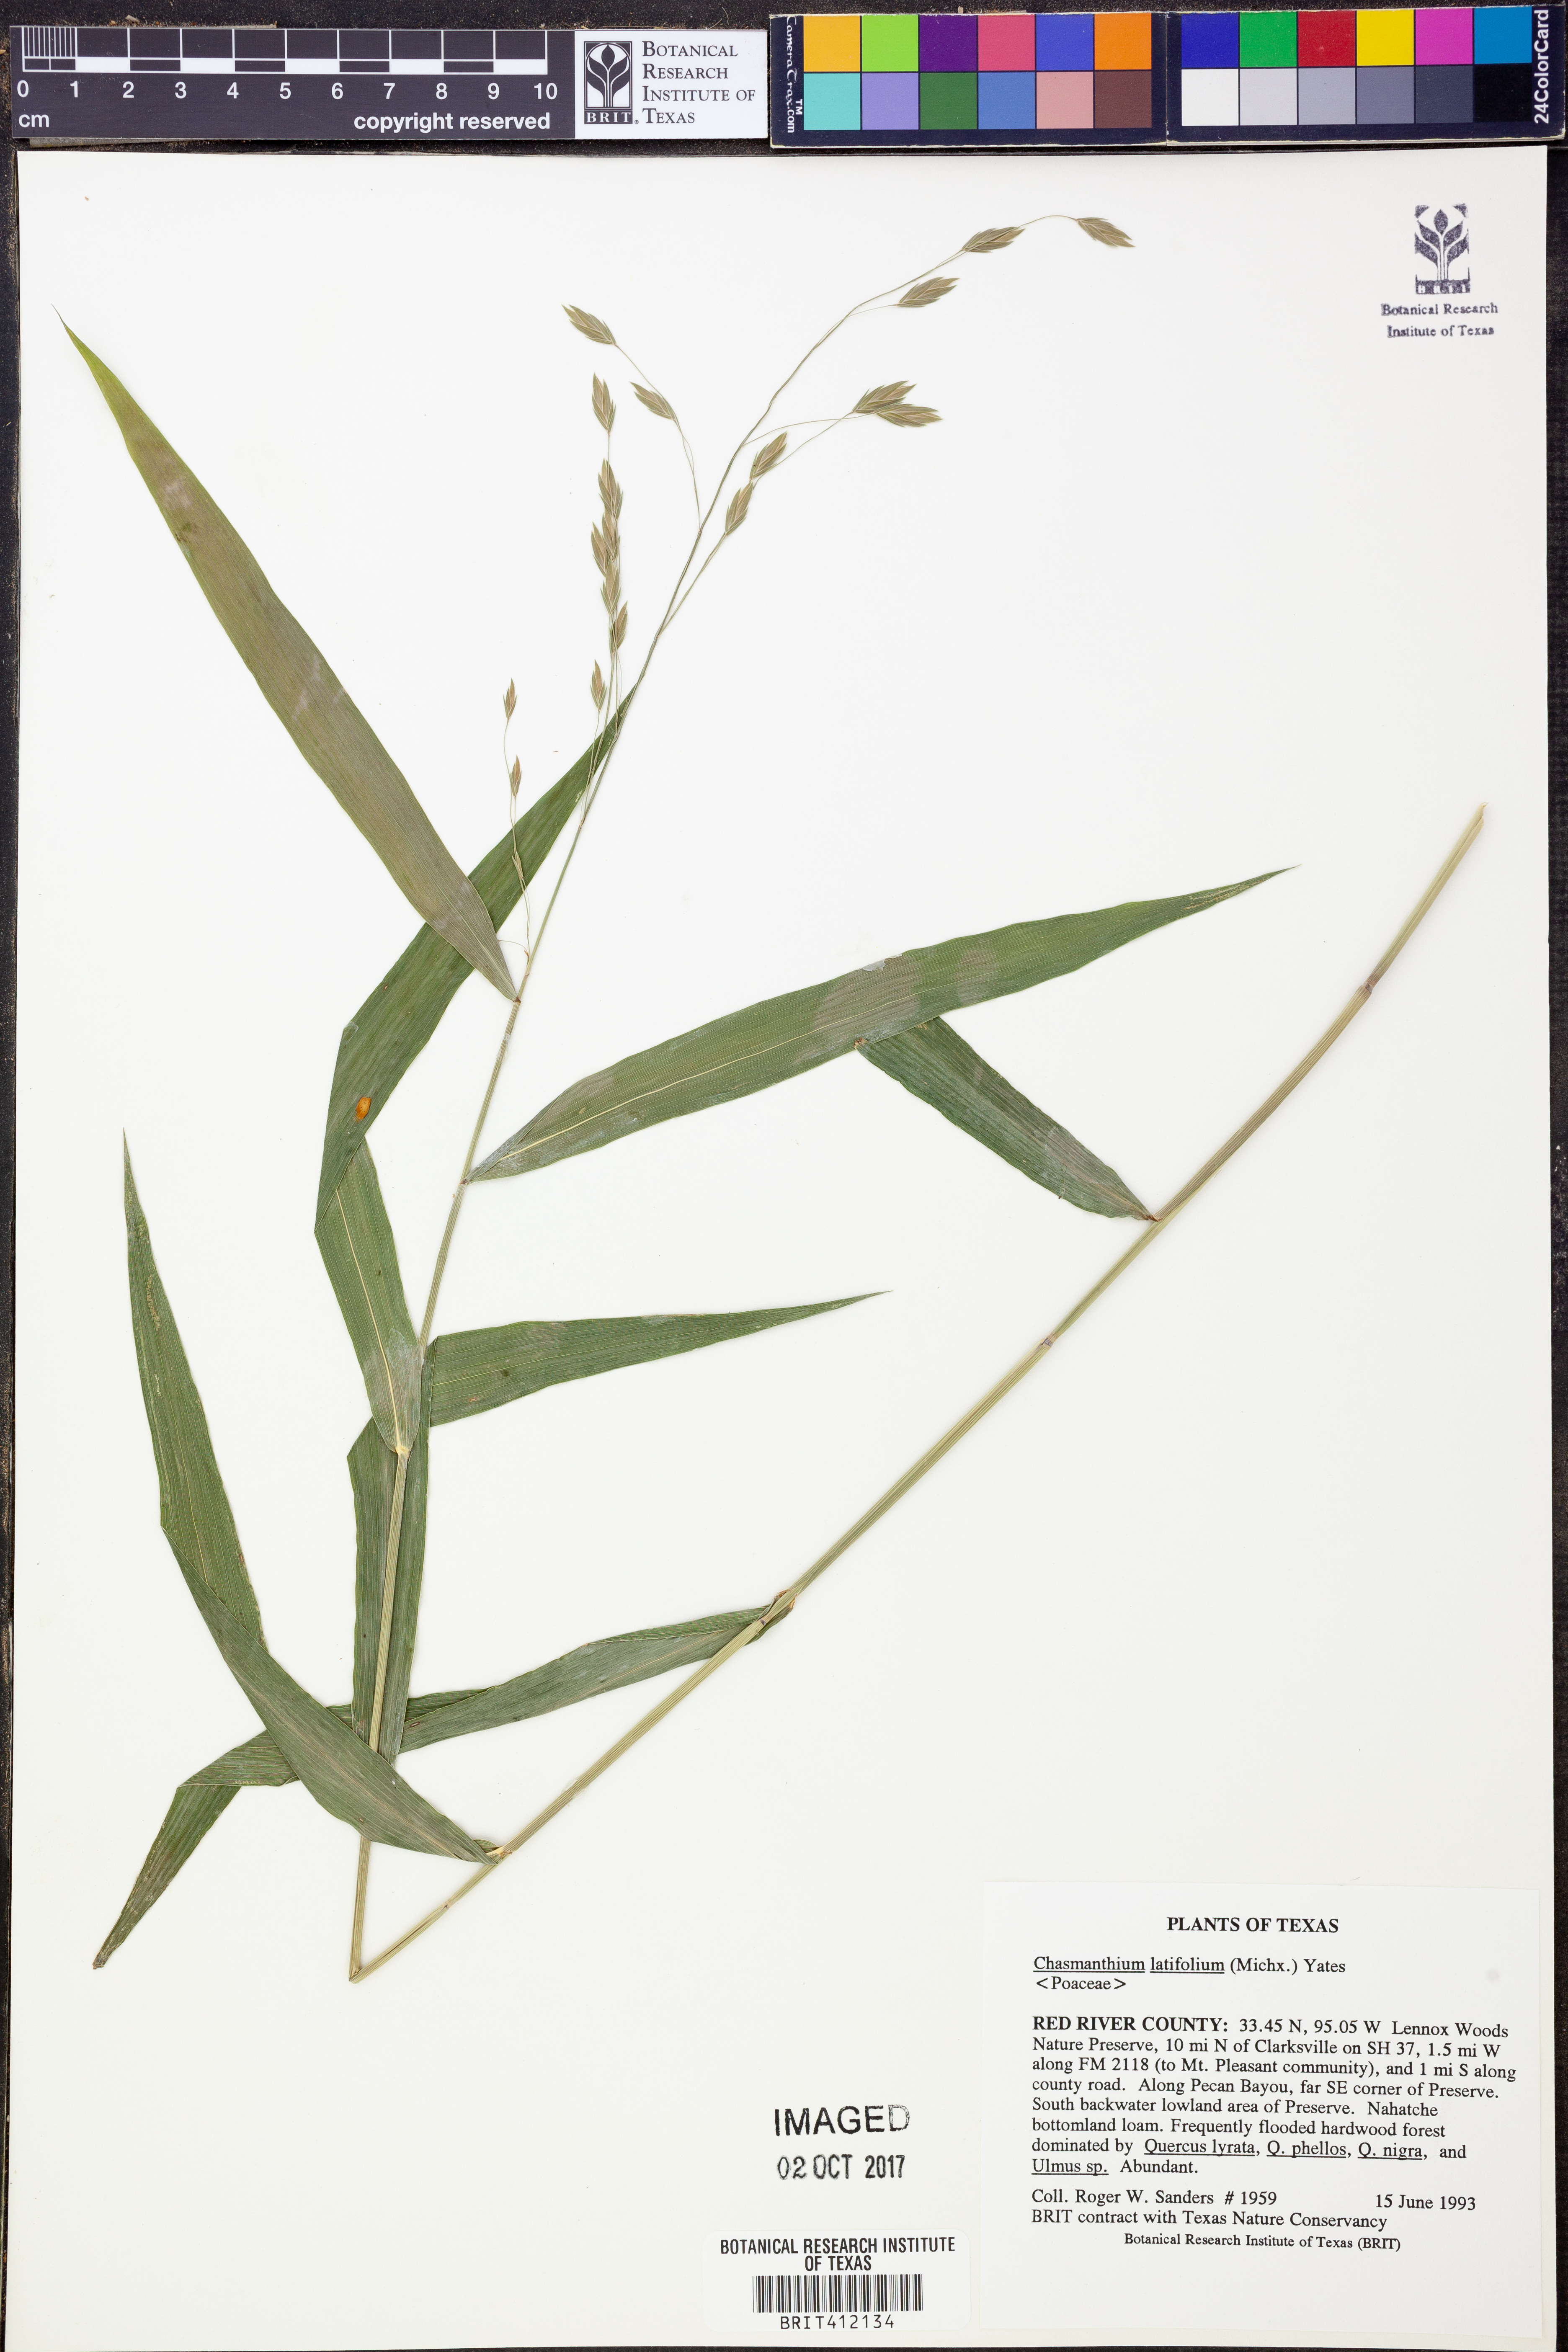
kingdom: Plantae
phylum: Tracheophyta
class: Liliopsida
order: Poales
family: Poaceae
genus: Chasmanthium
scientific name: Chasmanthium latifolium
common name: Broad-leaved chasmanthium
